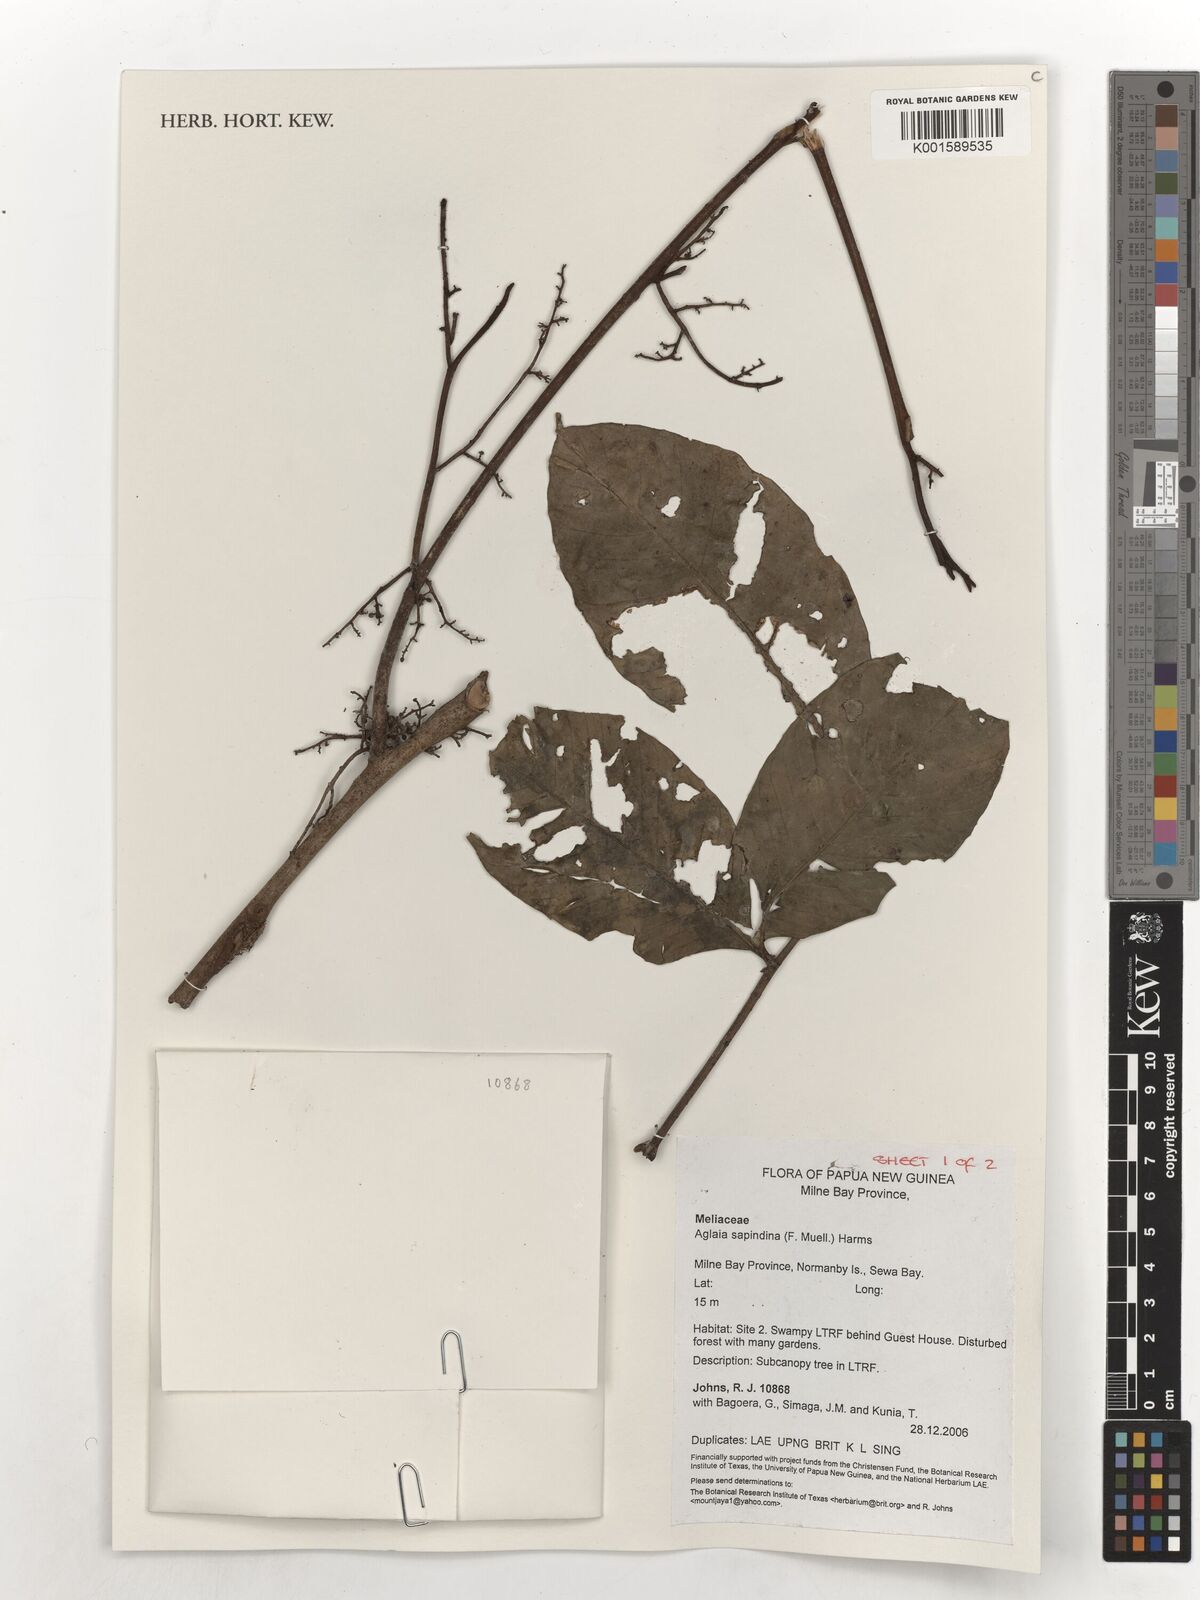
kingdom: Plantae
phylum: Tracheophyta
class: Magnoliopsida
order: Sapindales
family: Meliaceae
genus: Aglaia
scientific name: Aglaia sapindina
